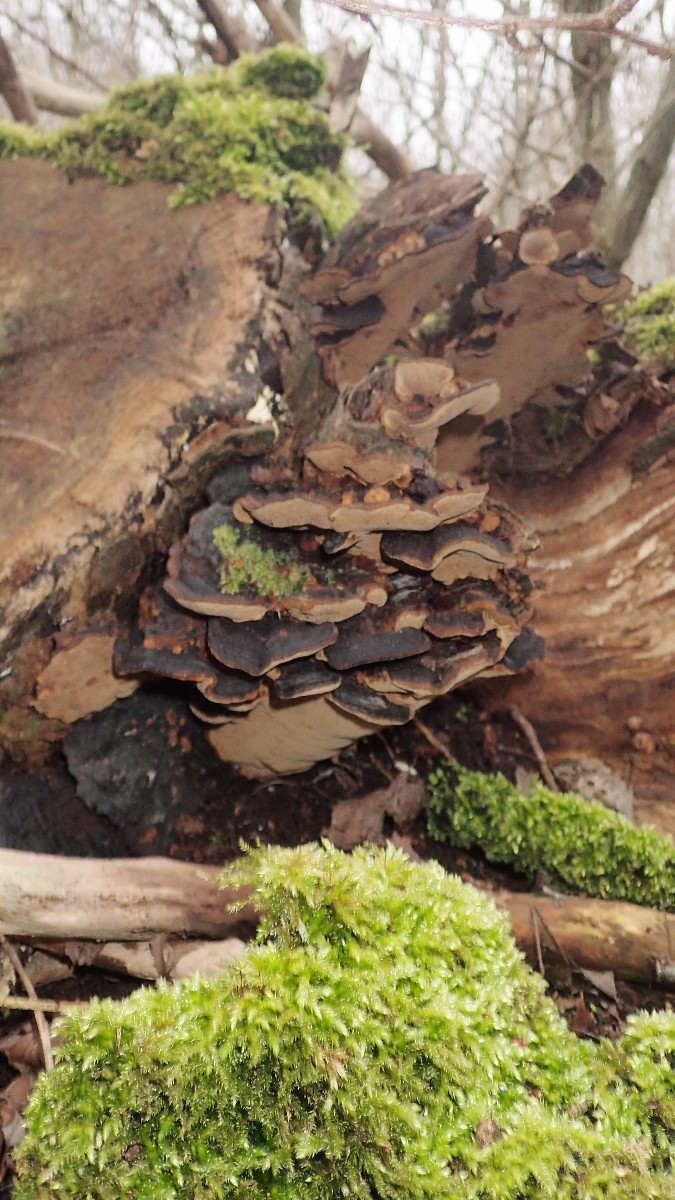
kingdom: Fungi
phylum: Basidiomycota
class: Agaricomycetes
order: Hymenochaetales
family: Hymenochaetaceae
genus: Phellinopsis
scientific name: Phellinopsis conchata
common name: pile-ildporesvamp
